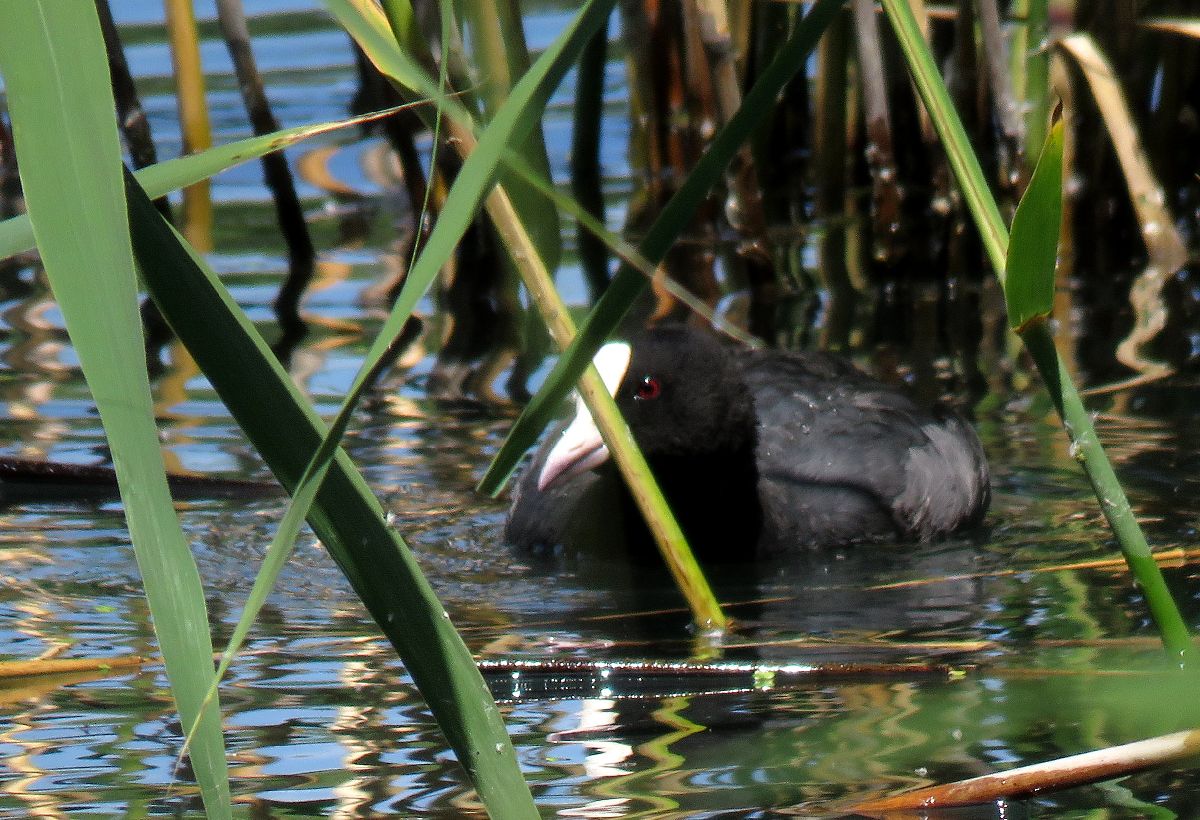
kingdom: Animalia
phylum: Chordata
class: Aves
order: Gruiformes
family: Rallidae
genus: Fulica
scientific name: Fulica atra
